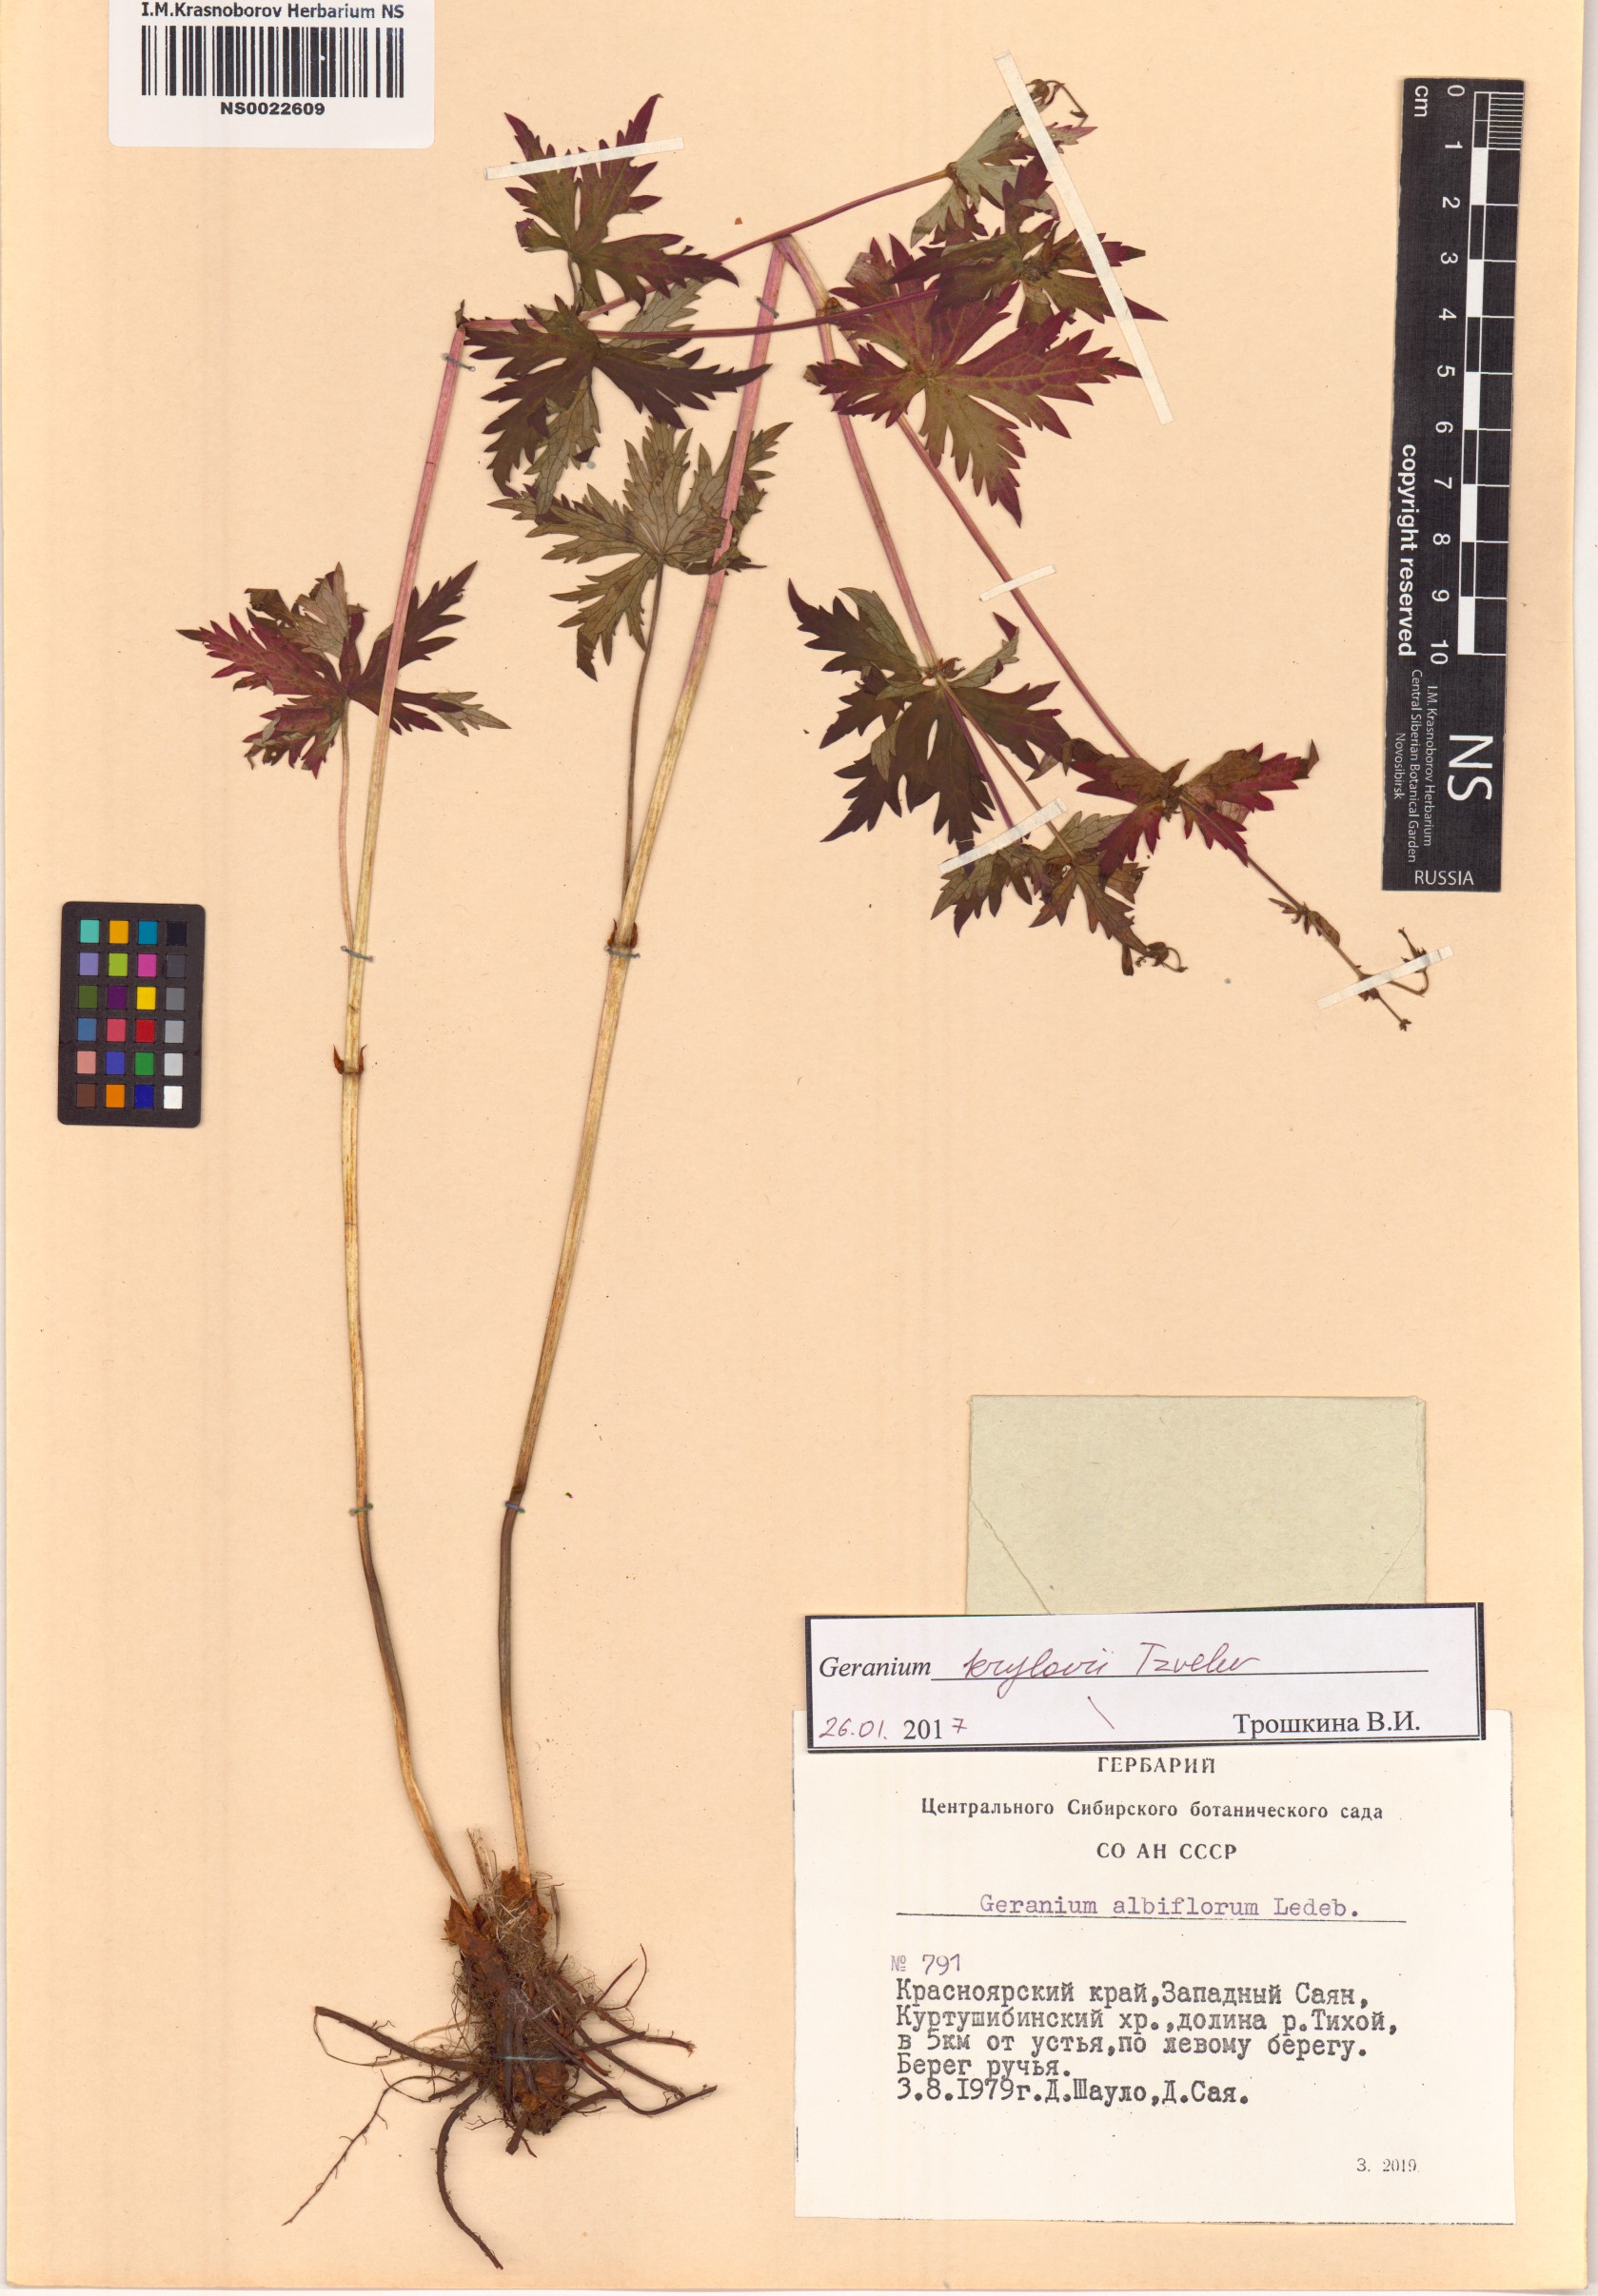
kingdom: Plantae
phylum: Tracheophyta
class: Magnoliopsida
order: Geraniales
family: Geraniaceae
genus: Geranium
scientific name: Geranium sylvaticum
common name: Wood crane's-bill
